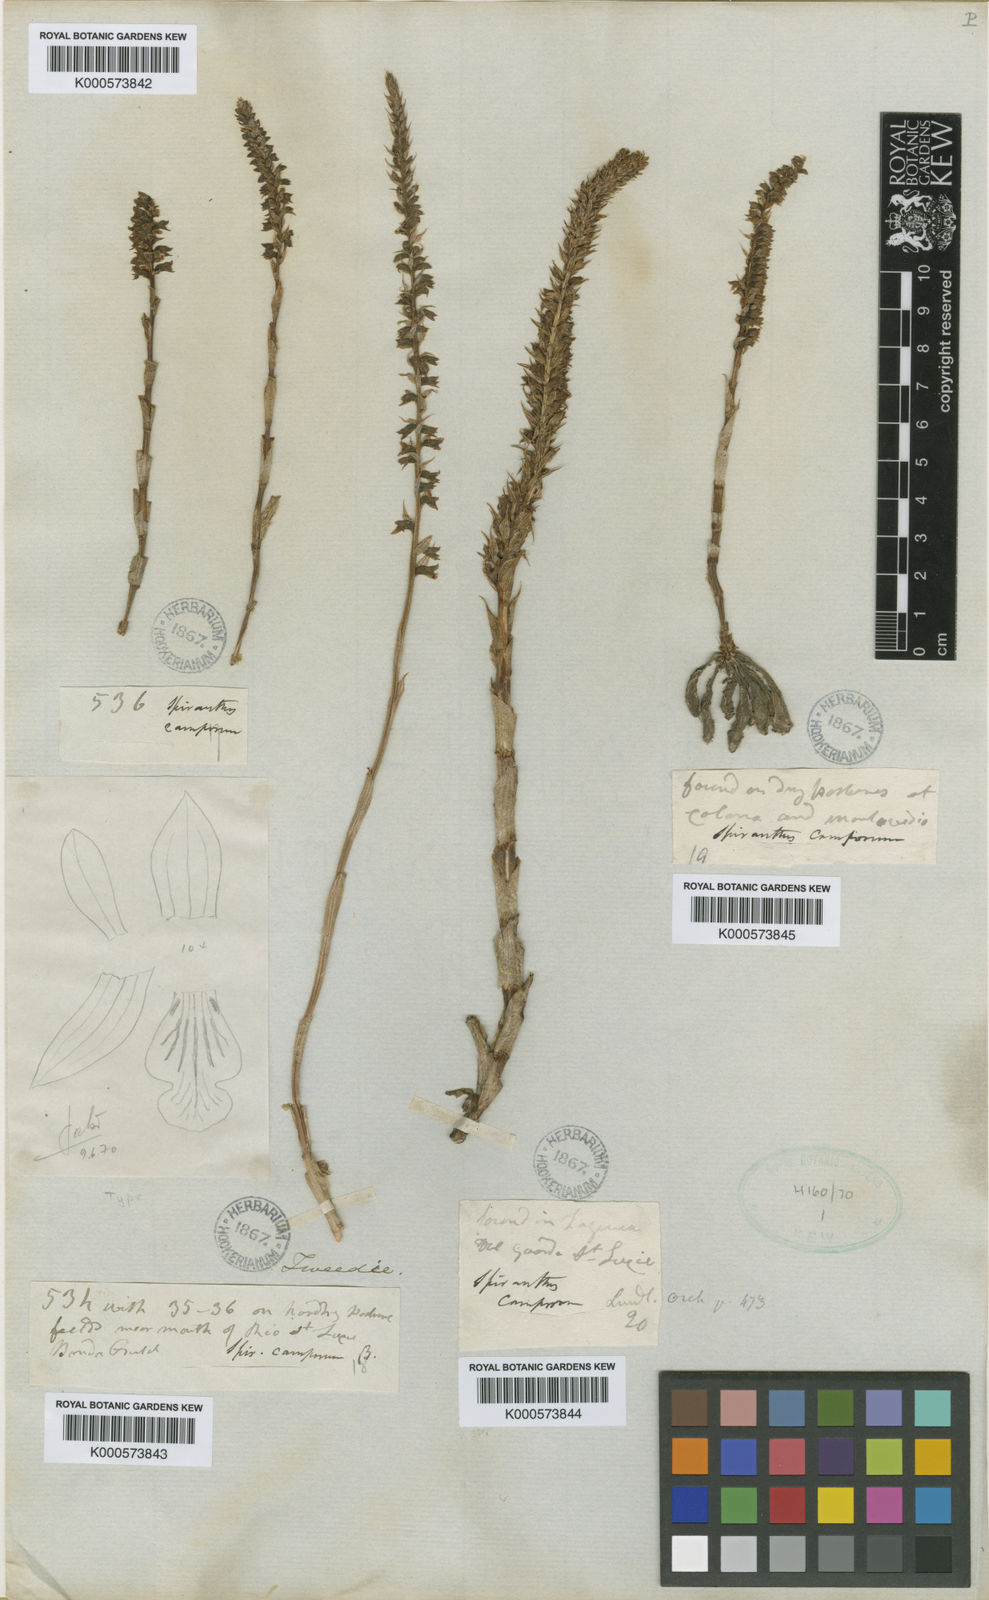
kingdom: Plantae
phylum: Tracheophyta
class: Liliopsida
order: Asparagales
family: Orchidaceae
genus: Brachystele
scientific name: Brachystele camporum
